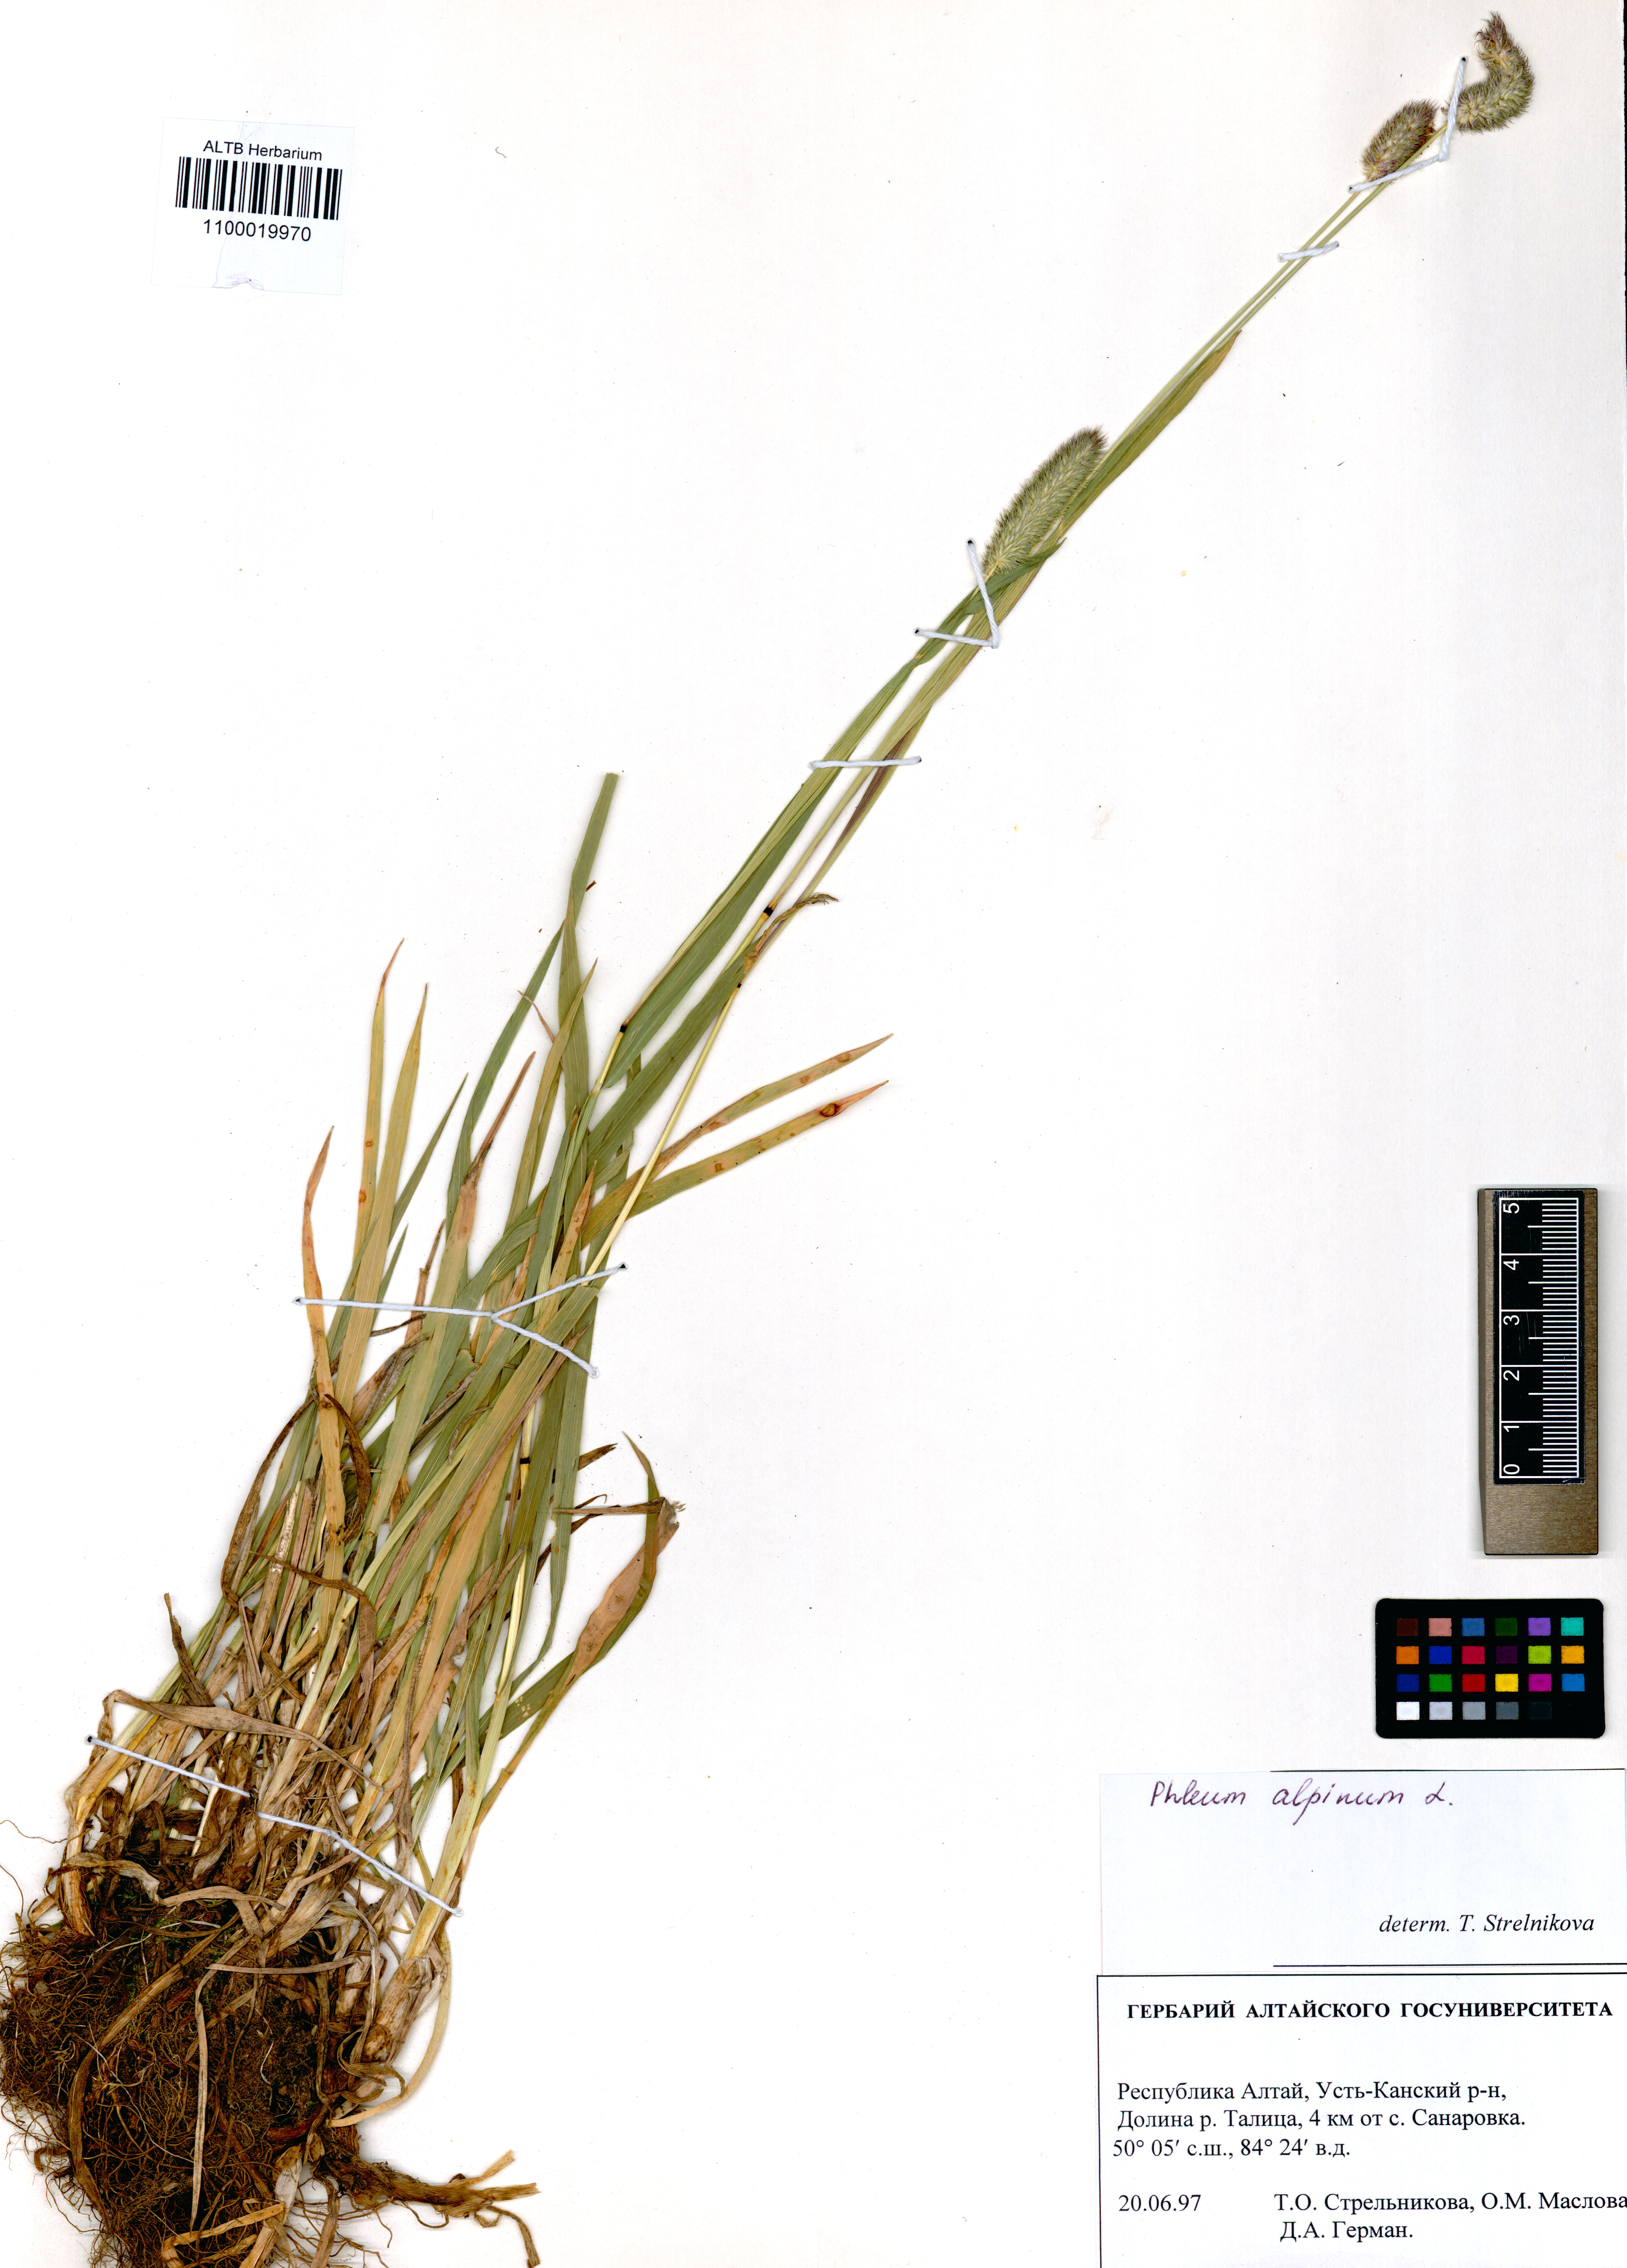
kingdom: Plantae
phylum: Tracheophyta
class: Liliopsida
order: Poales
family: Poaceae
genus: Phleum
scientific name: Phleum alpinum
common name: Alpine cat's-tail
